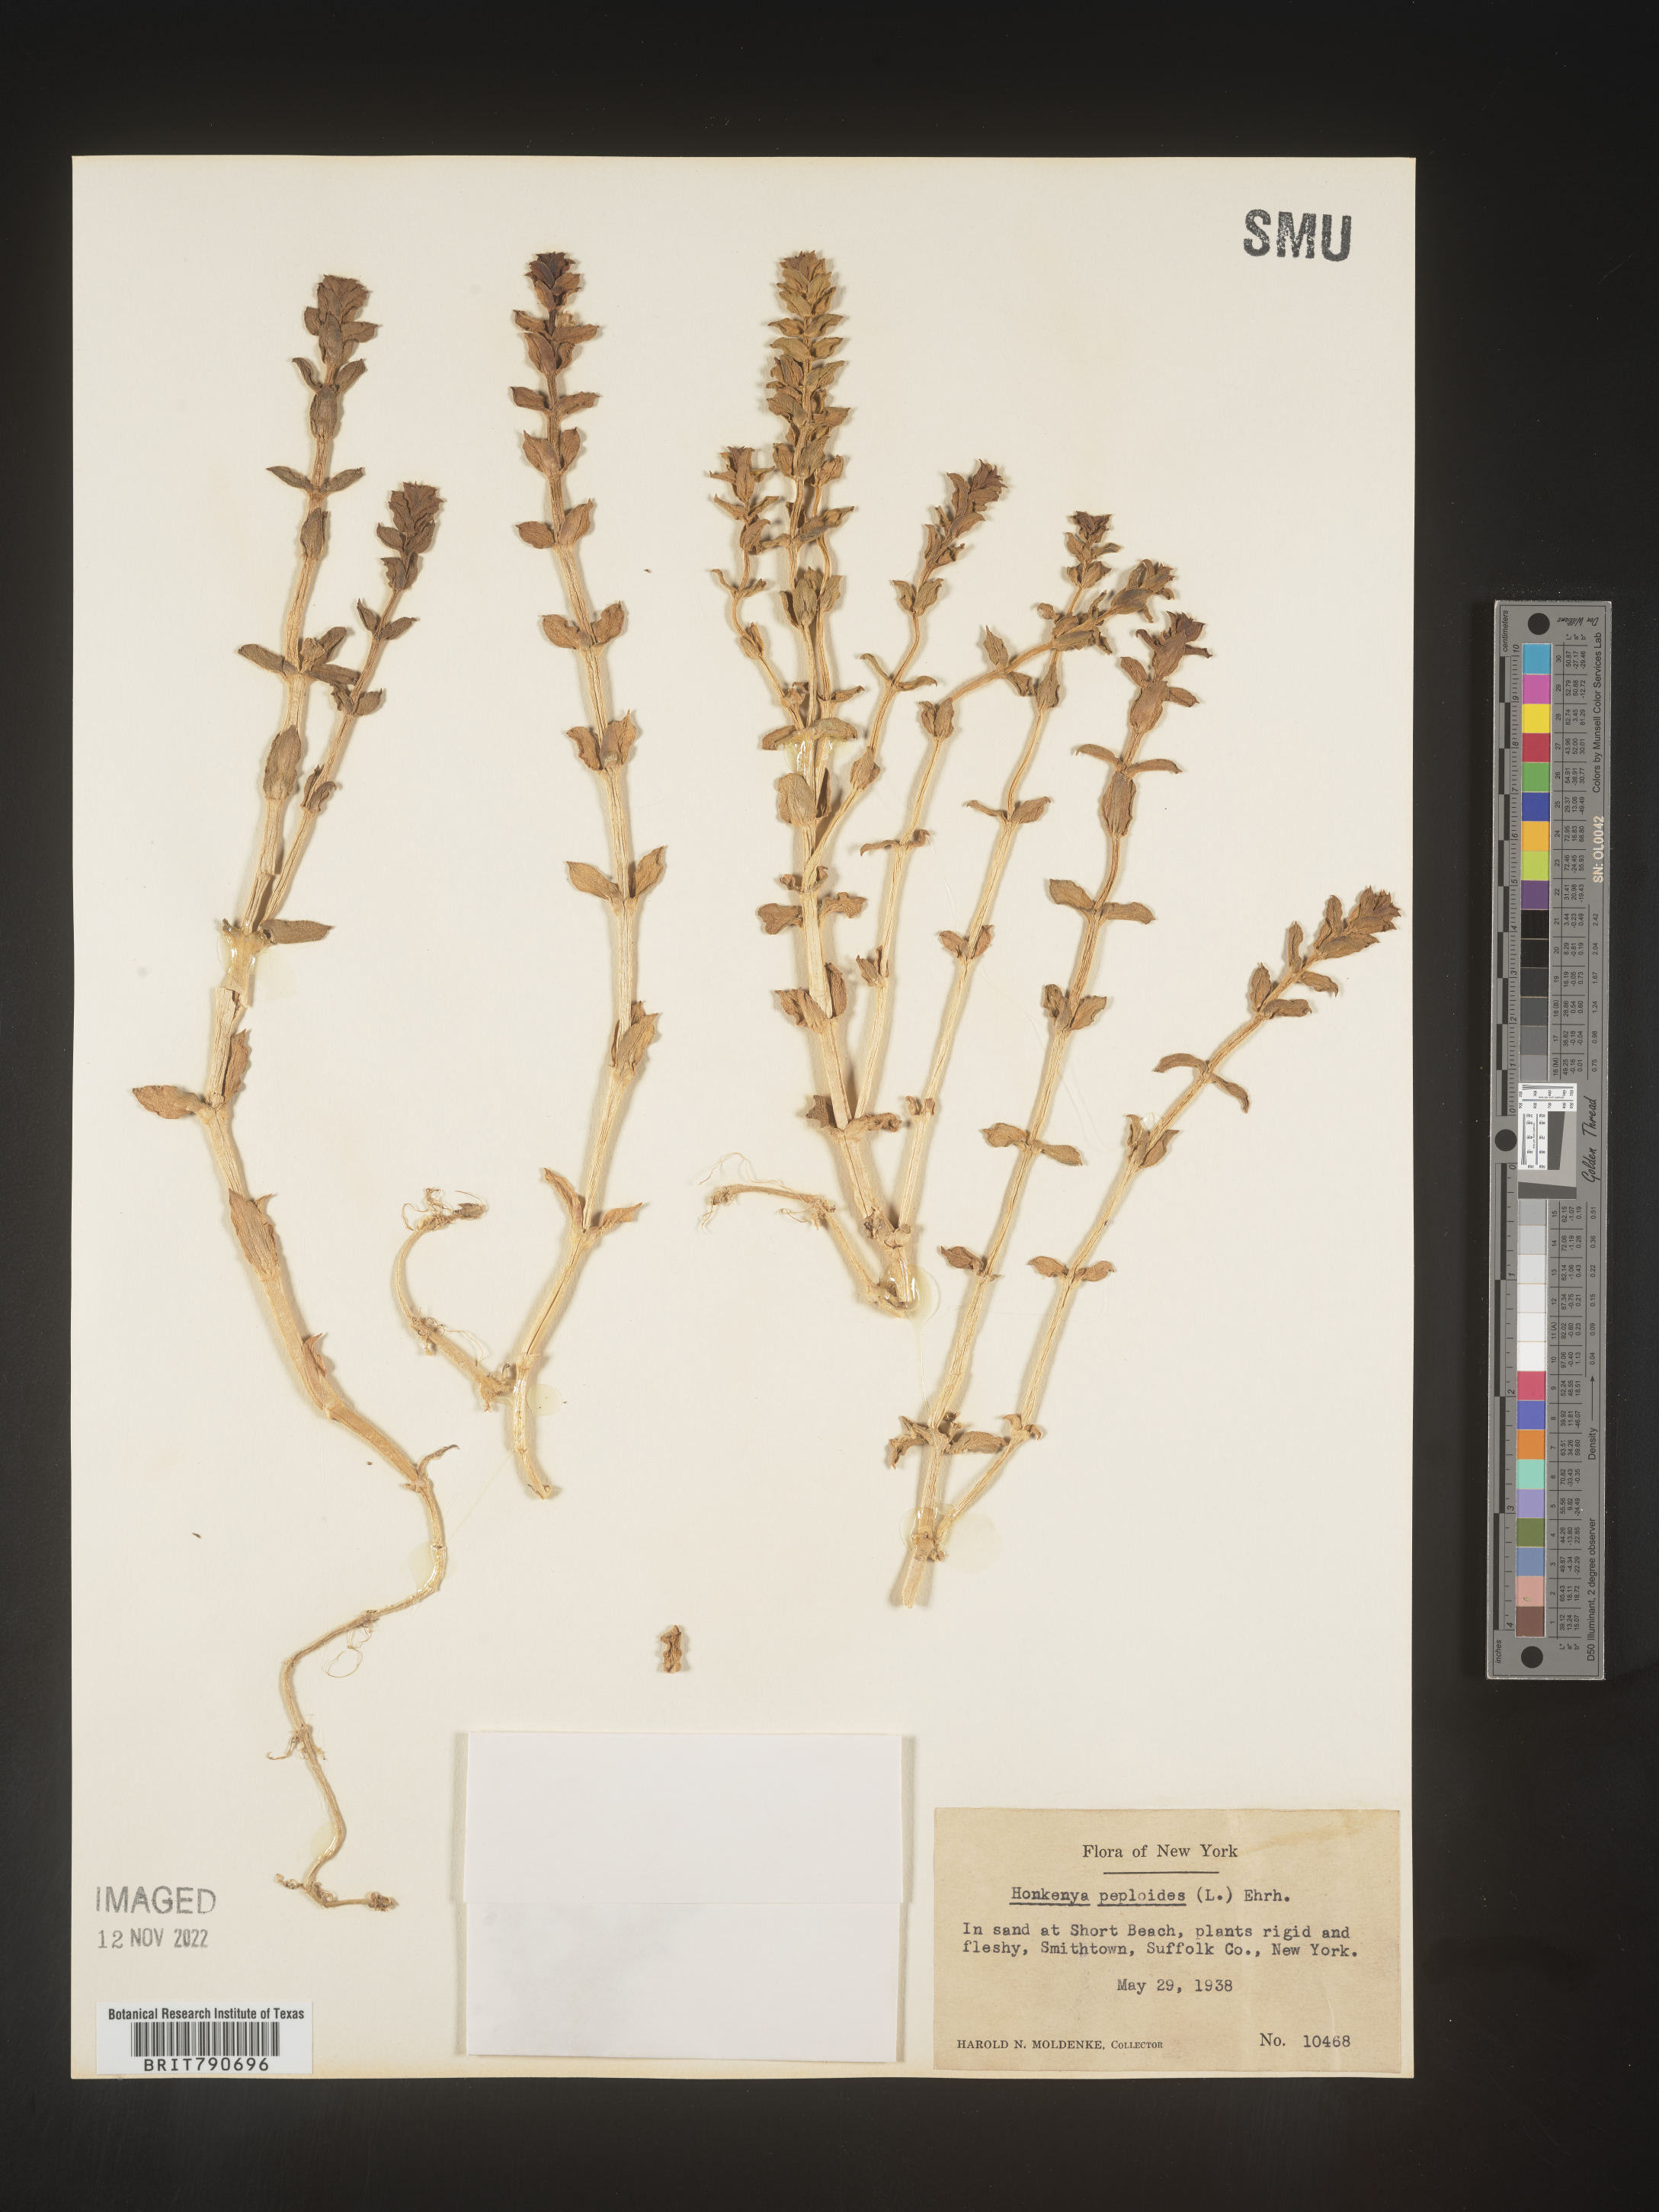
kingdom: Plantae
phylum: Tracheophyta
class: Magnoliopsida
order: Malvales
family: Malvaceae
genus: Clappertonia
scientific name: Clappertonia
